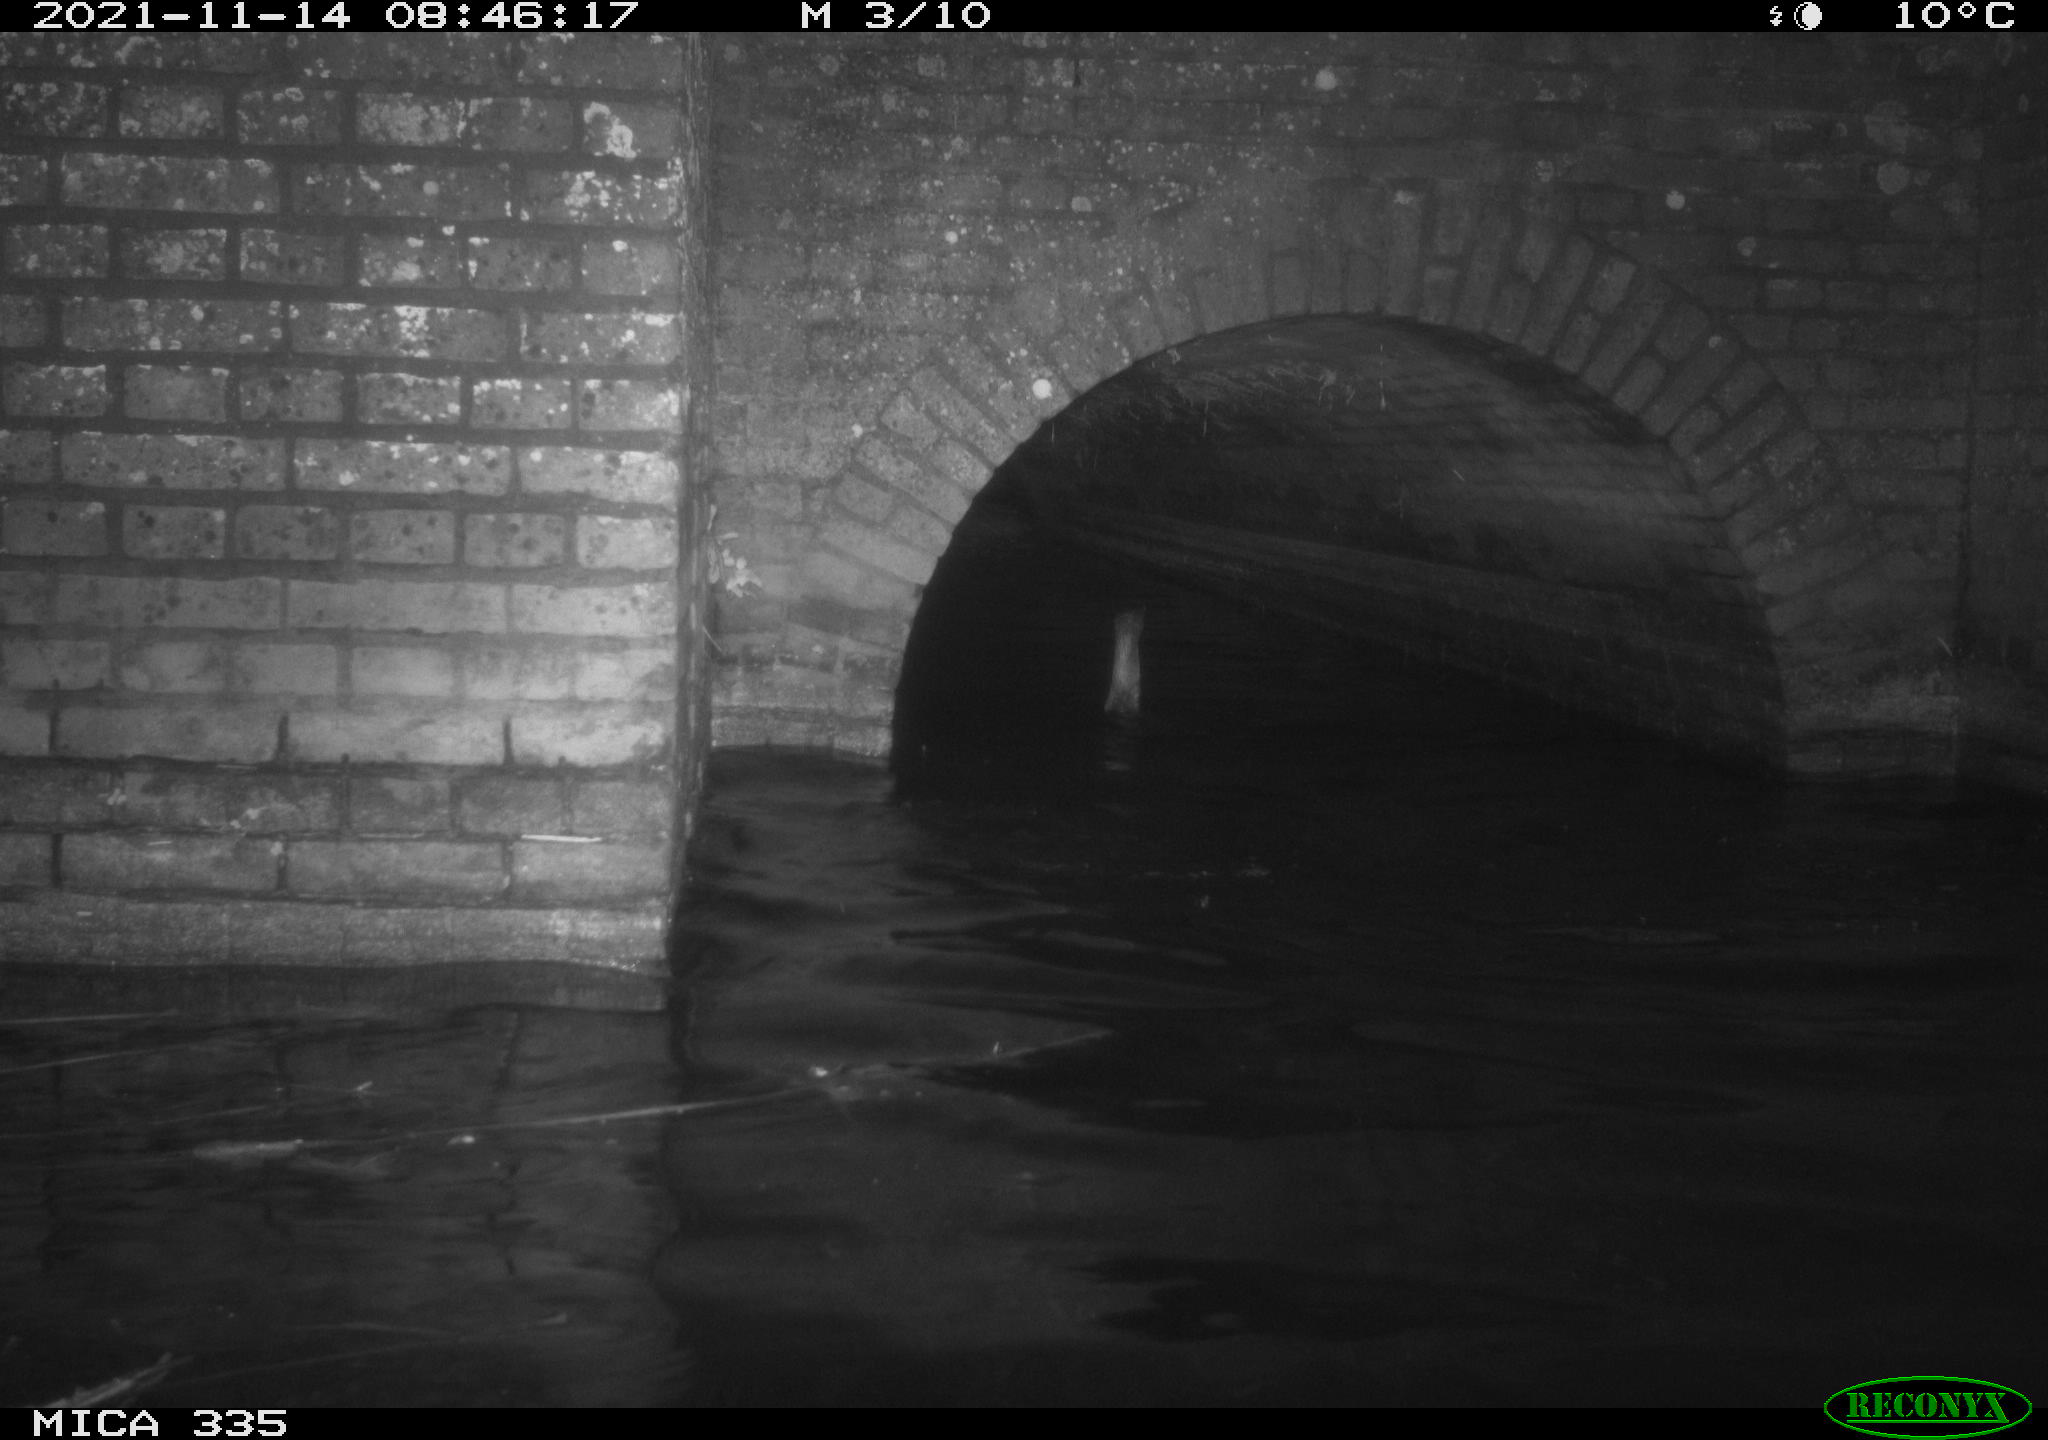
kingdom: Animalia
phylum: Chordata
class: Aves
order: Suliformes
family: Phalacrocoracidae
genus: Phalacrocorax
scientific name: Phalacrocorax carbo
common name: Great cormorant
